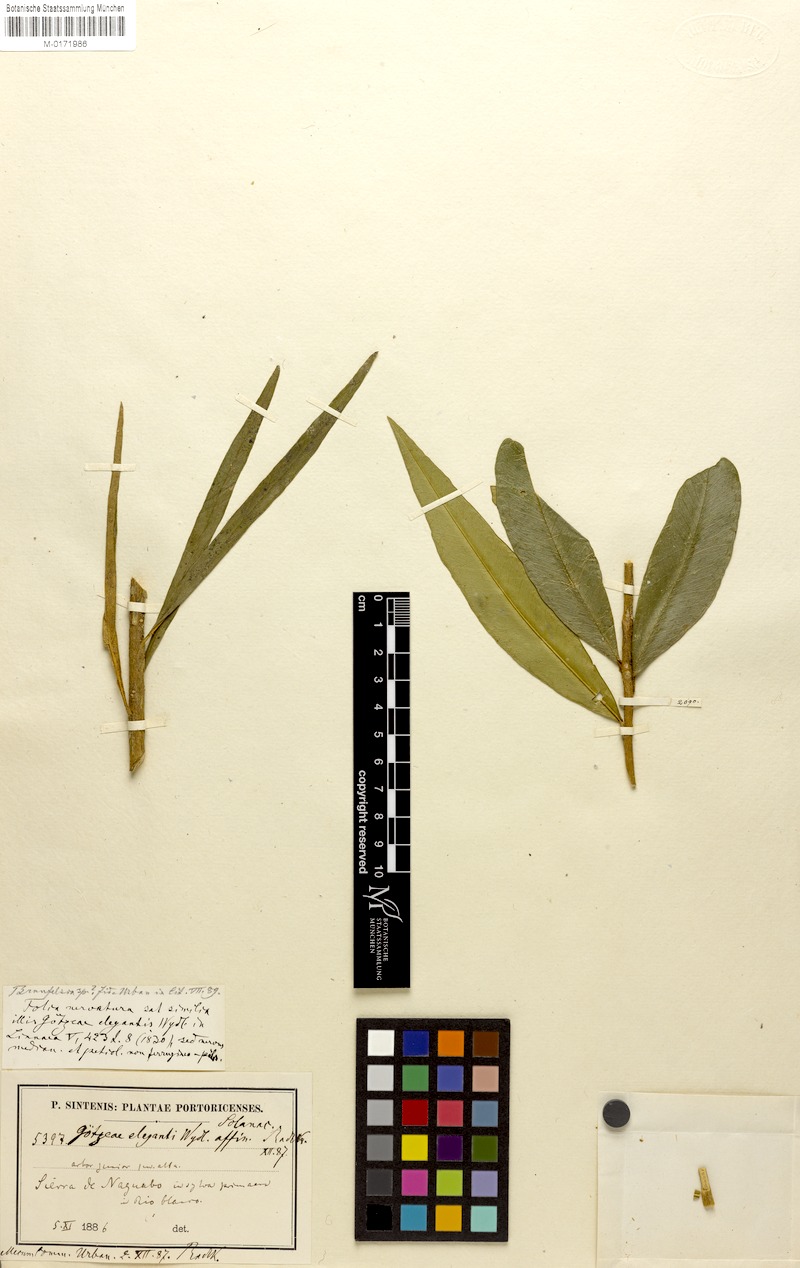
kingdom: Plantae
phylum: Tracheophyta
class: Magnoliopsida
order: Solanales
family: Solanaceae
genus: Brunfelsia
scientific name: Brunfelsia portoricensis
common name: Puerto rico raintree
